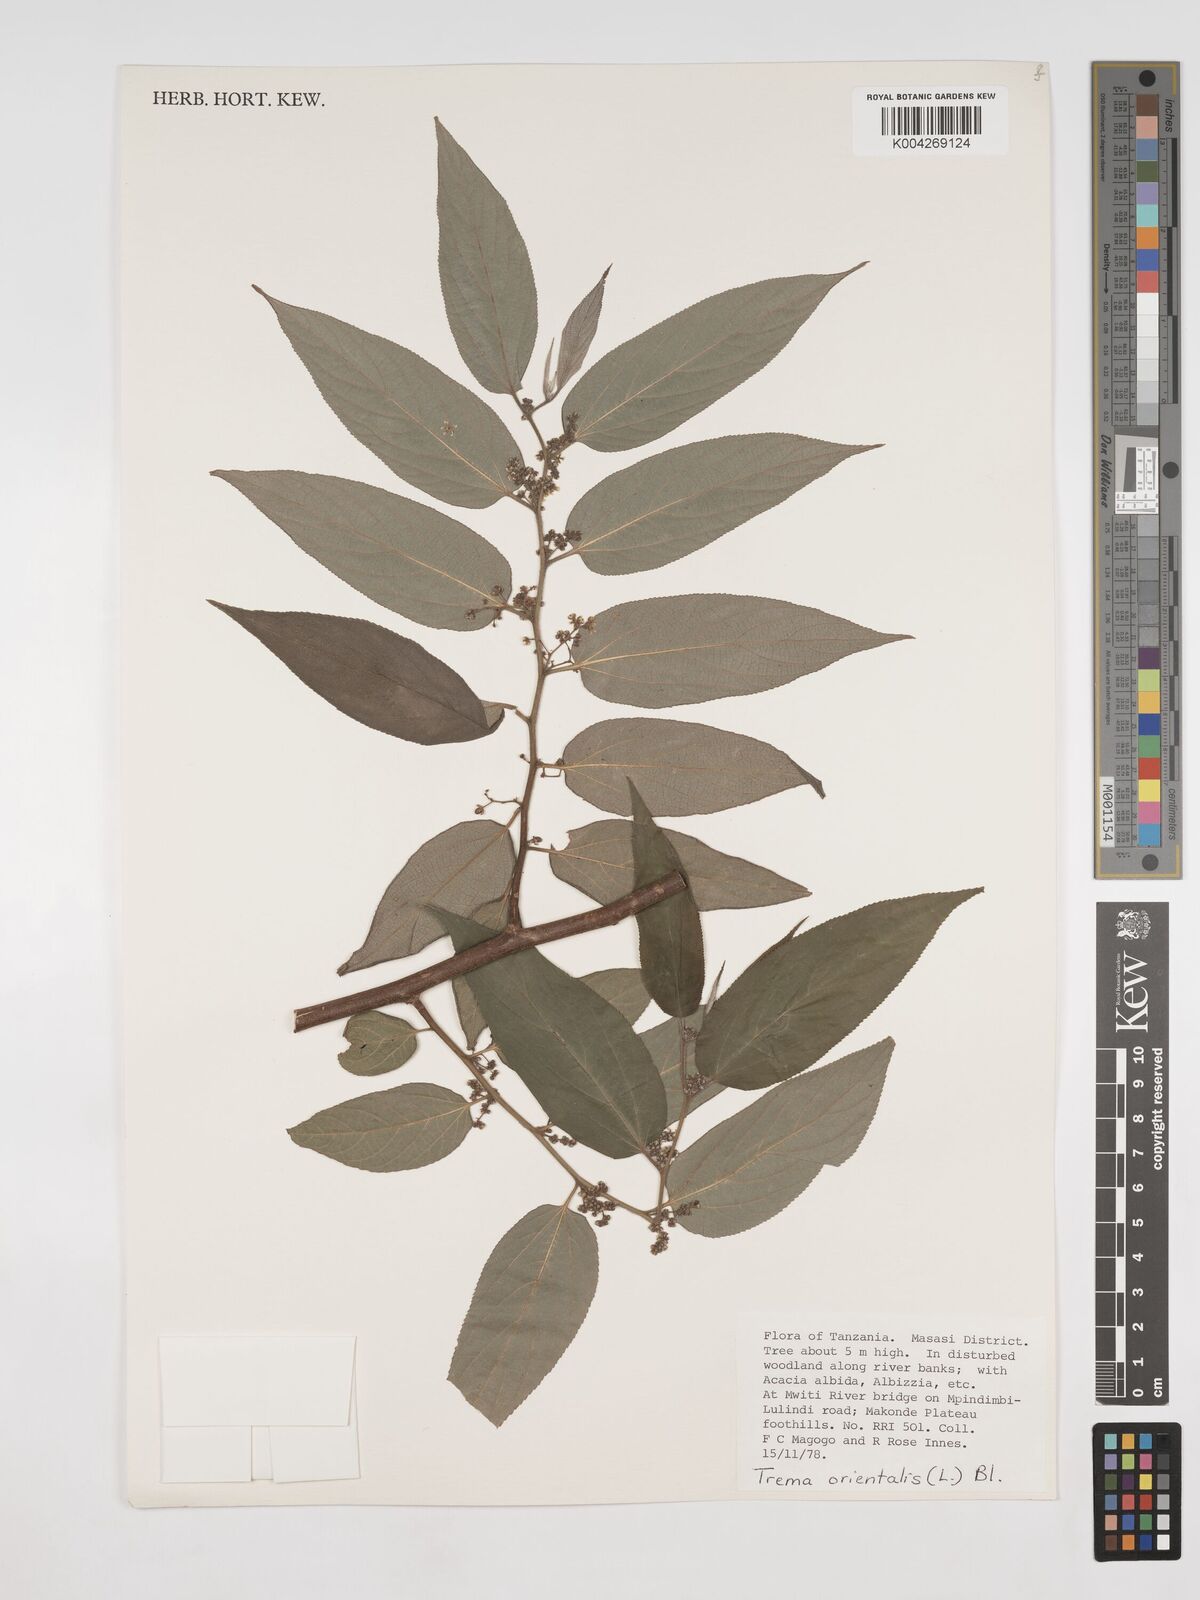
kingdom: Plantae
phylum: Tracheophyta
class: Magnoliopsida
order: Rosales
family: Cannabaceae
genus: Trema
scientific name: Trema orientale
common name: Indian charcoal tree
